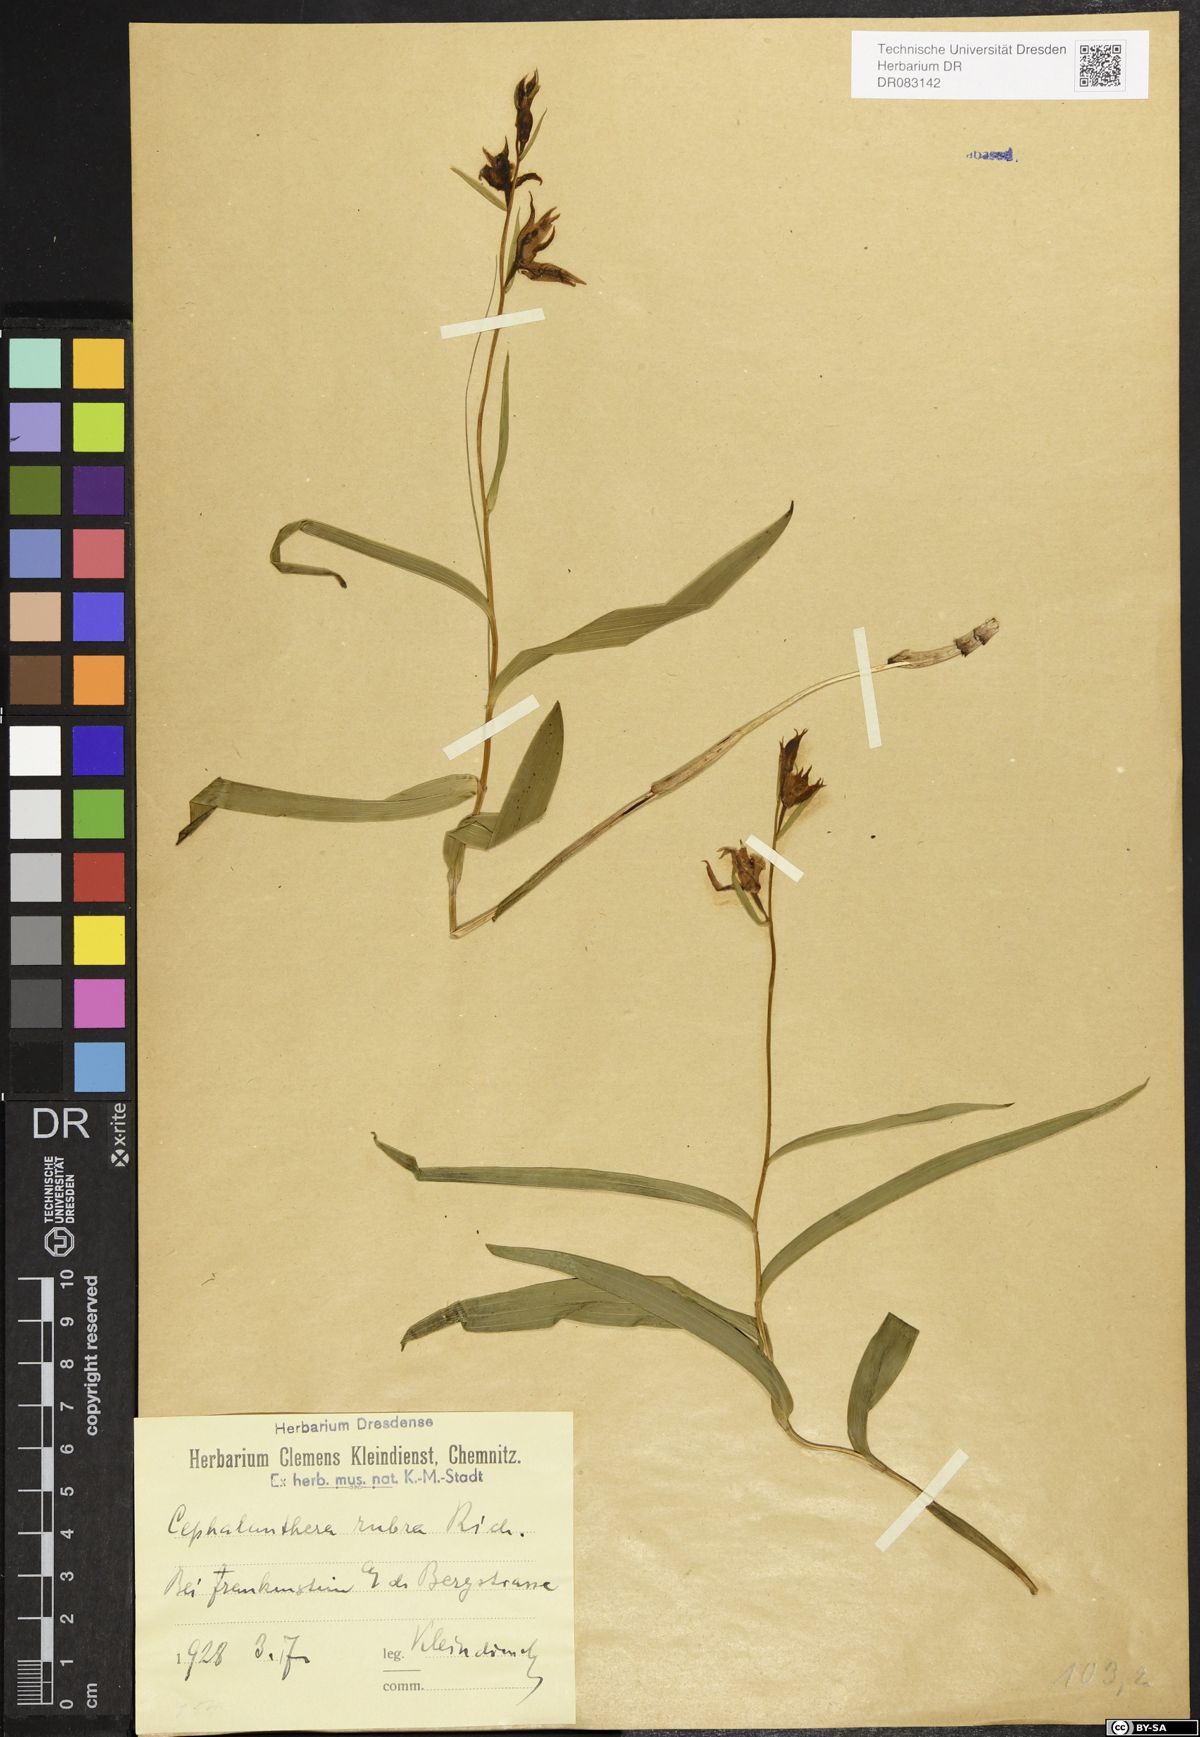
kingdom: Plantae
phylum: Tracheophyta
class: Liliopsida
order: Asparagales
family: Orchidaceae
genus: Cephalanthera
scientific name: Cephalanthera rubra
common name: Red helleborine
